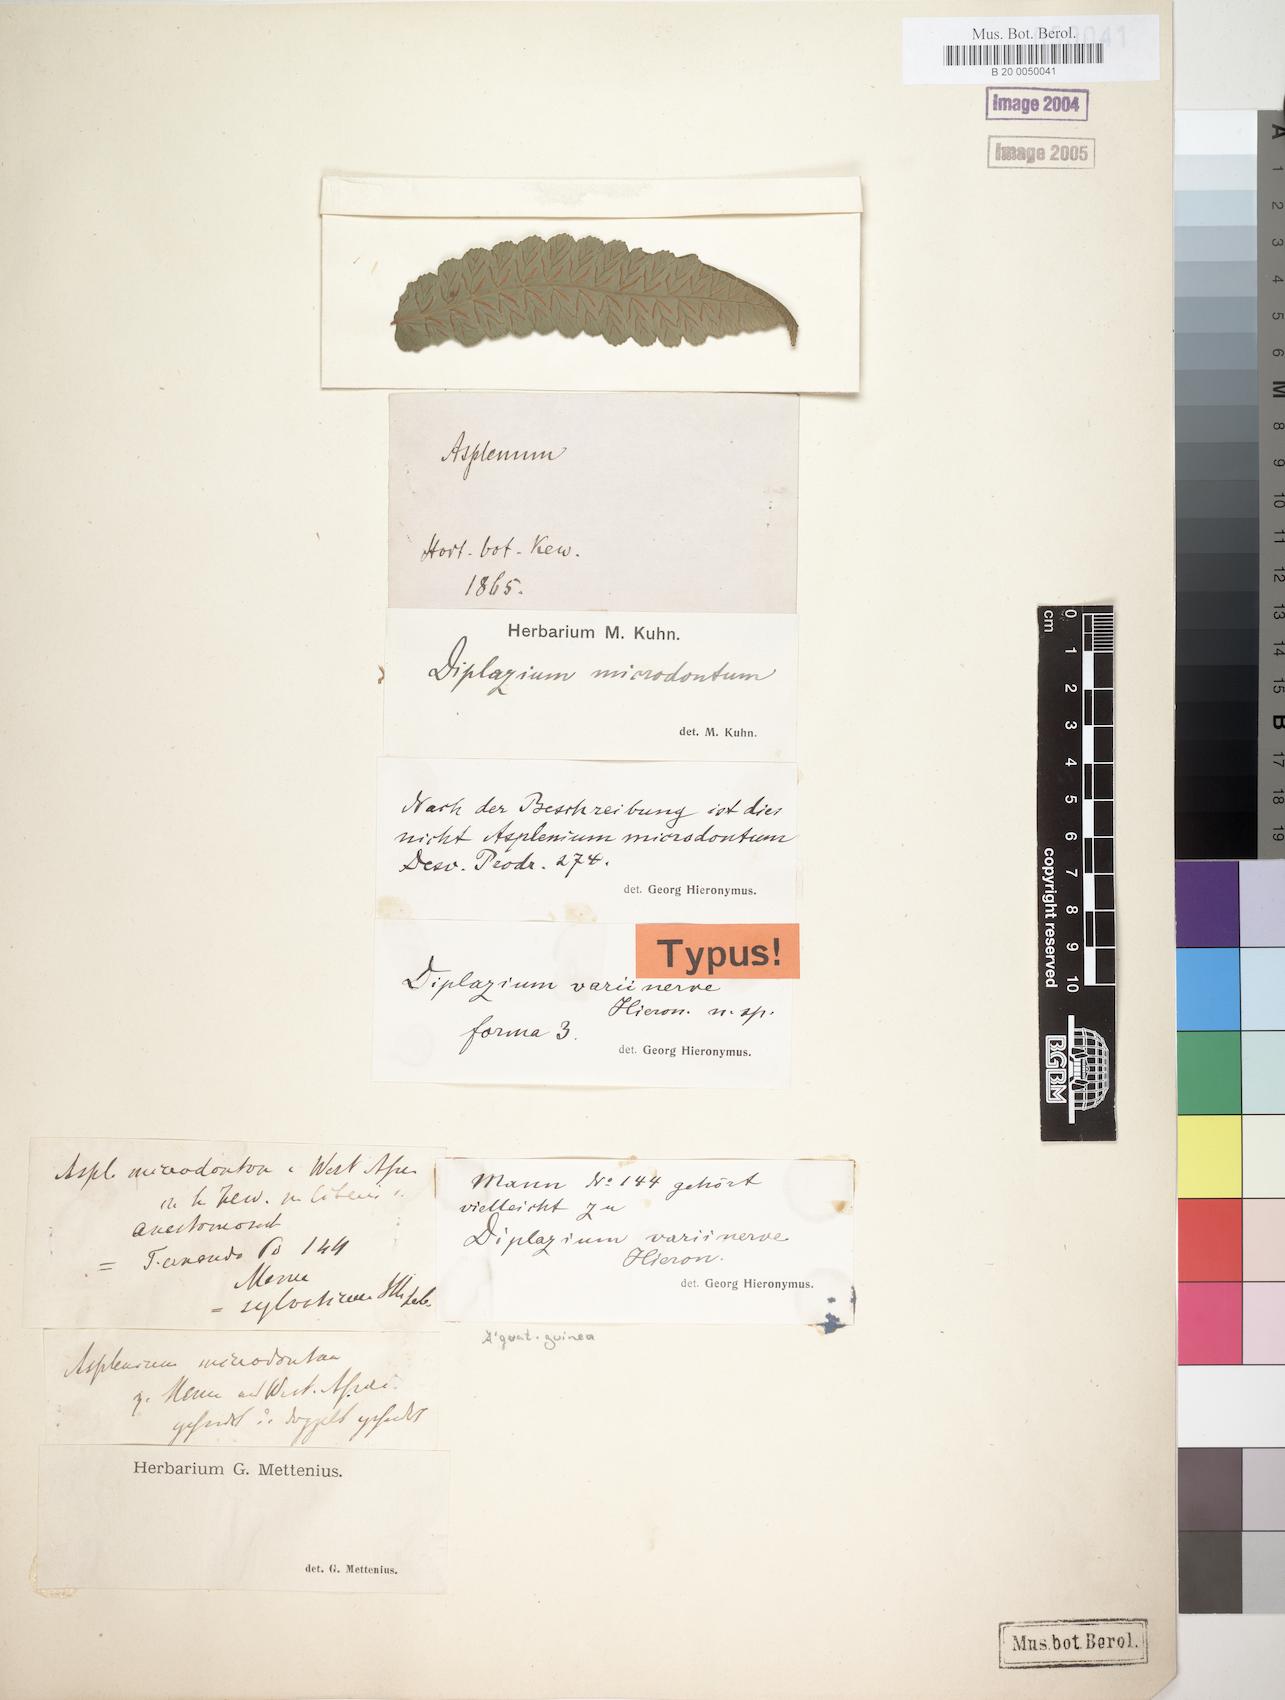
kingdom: Plantae
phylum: Tracheophyta
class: Polypodiopsida
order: Polypodiales
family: Athyriaceae
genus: Diplazium
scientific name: Diplazium welwitschii
